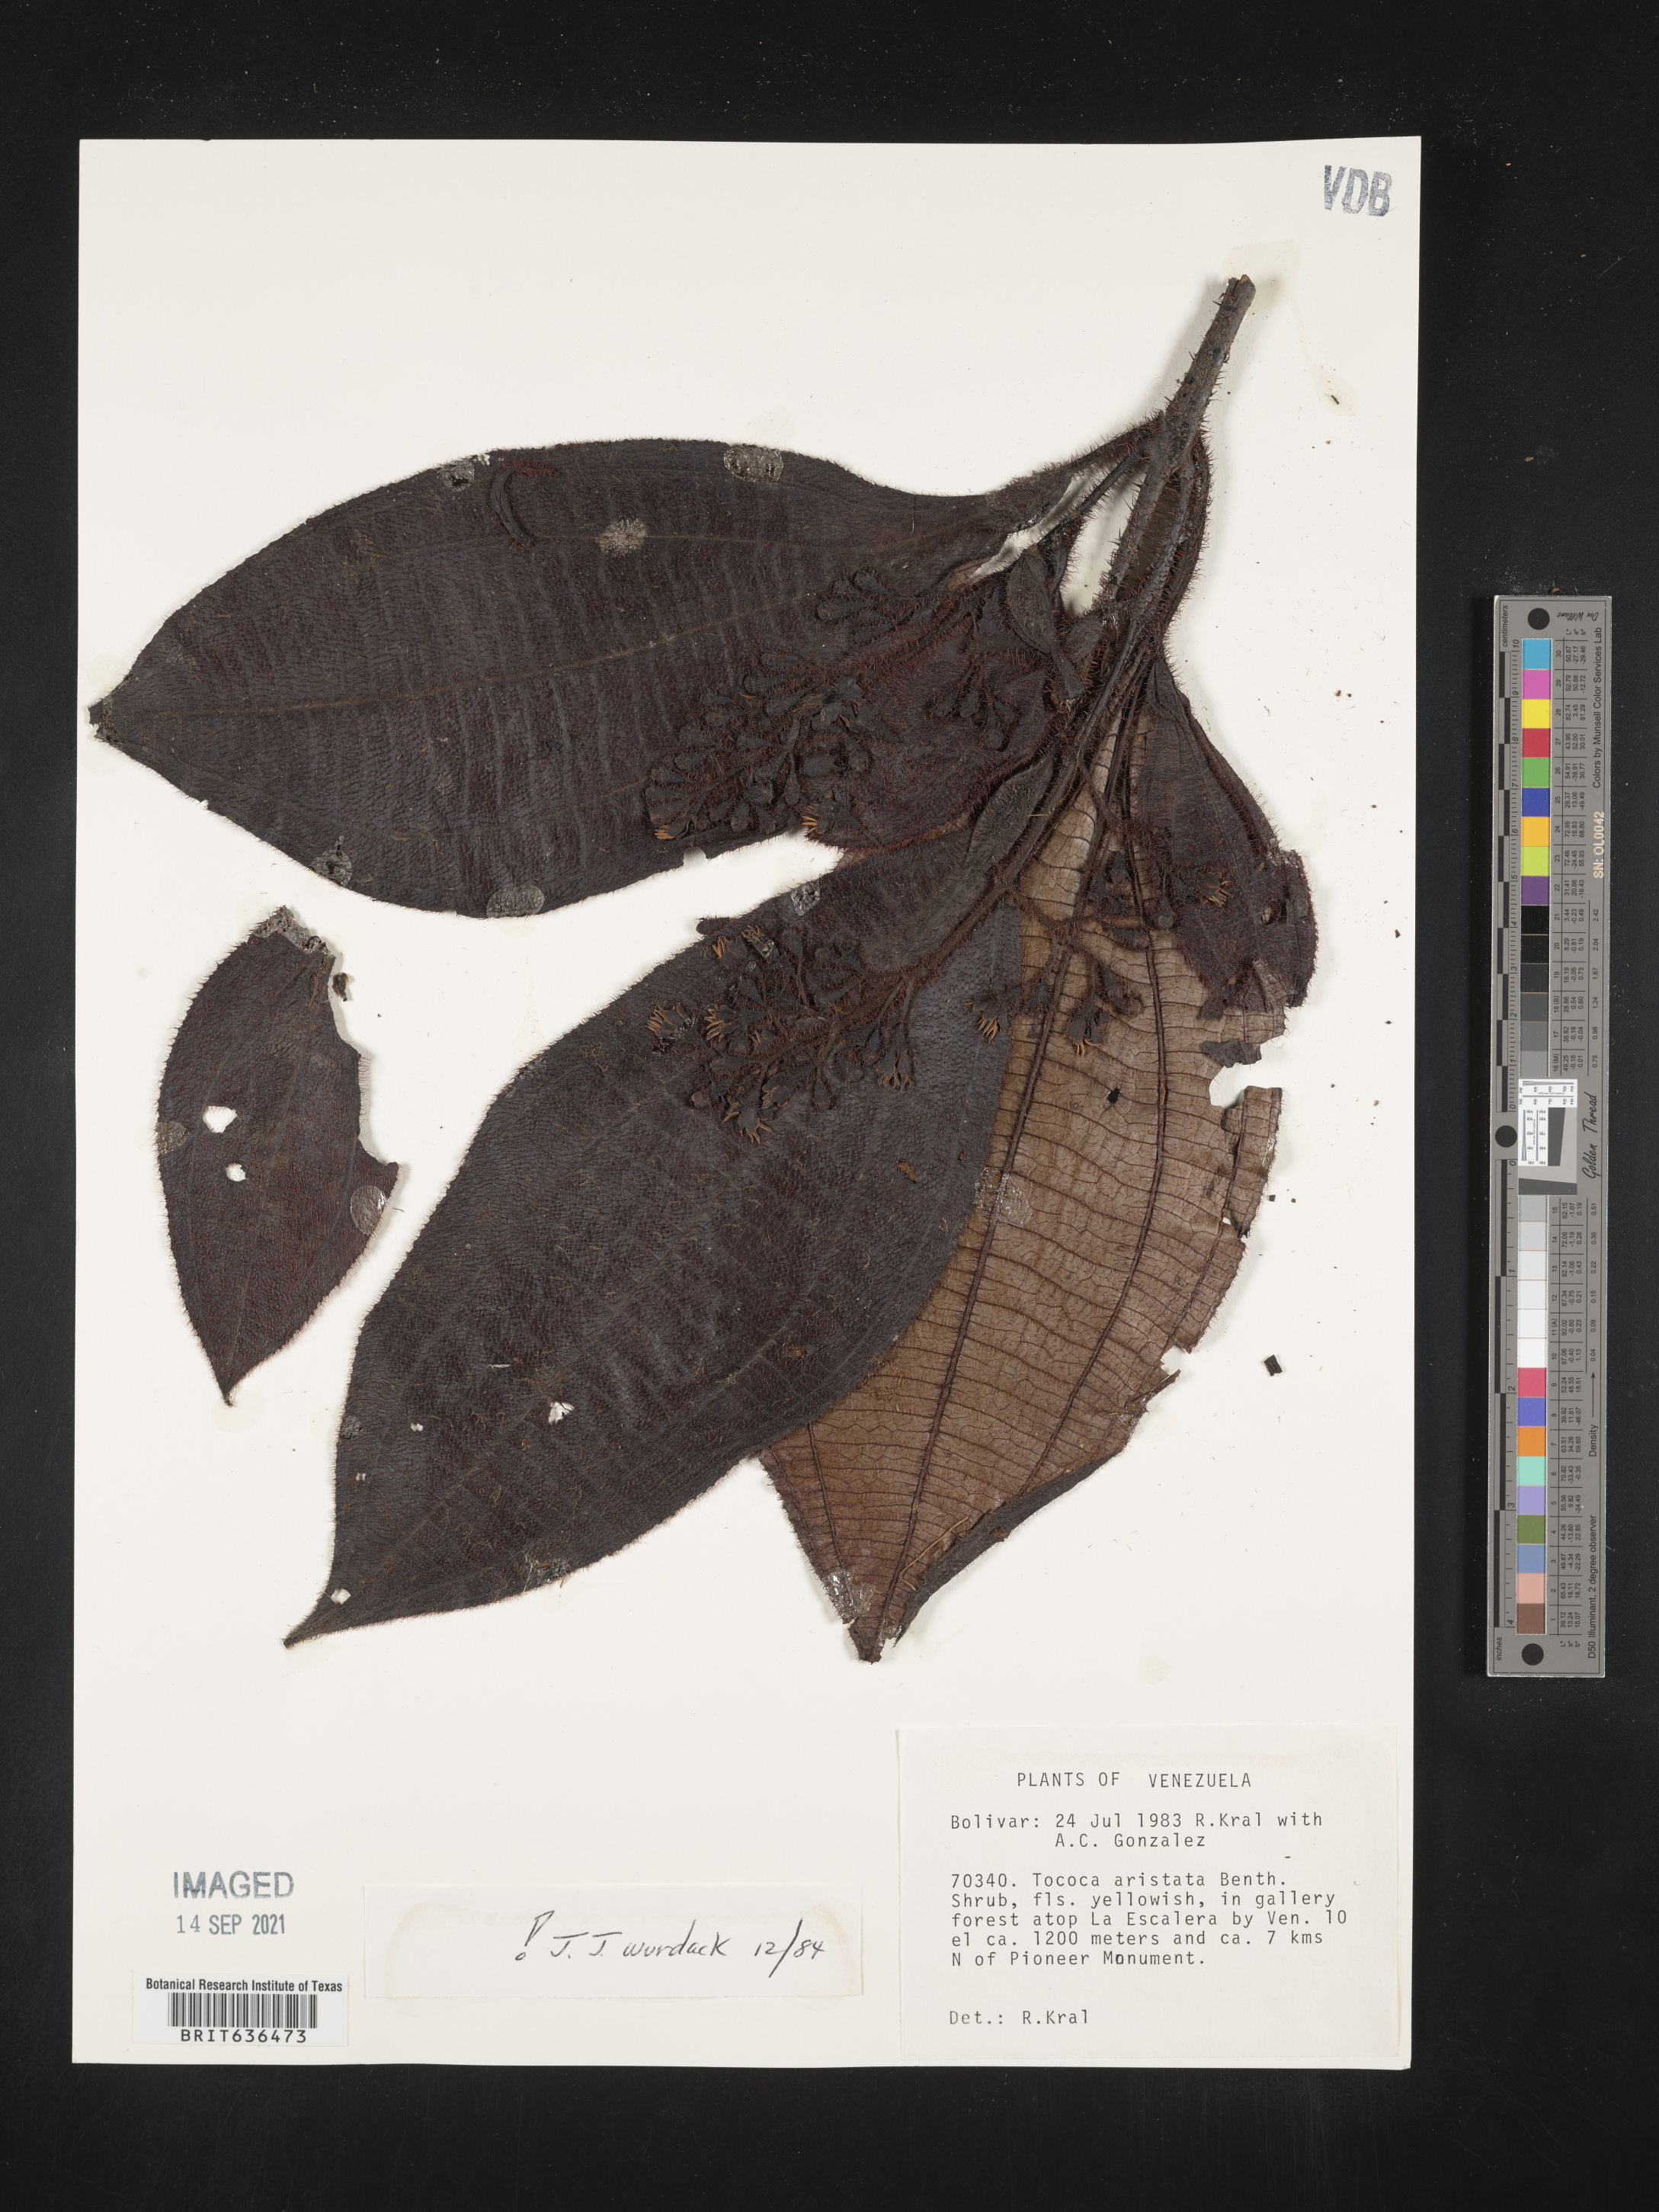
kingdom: Plantae
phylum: Tracheophyta
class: Magnoliopsida
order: Myrtales
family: Melastomataceae
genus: Tibouchina
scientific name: Tibouchina
